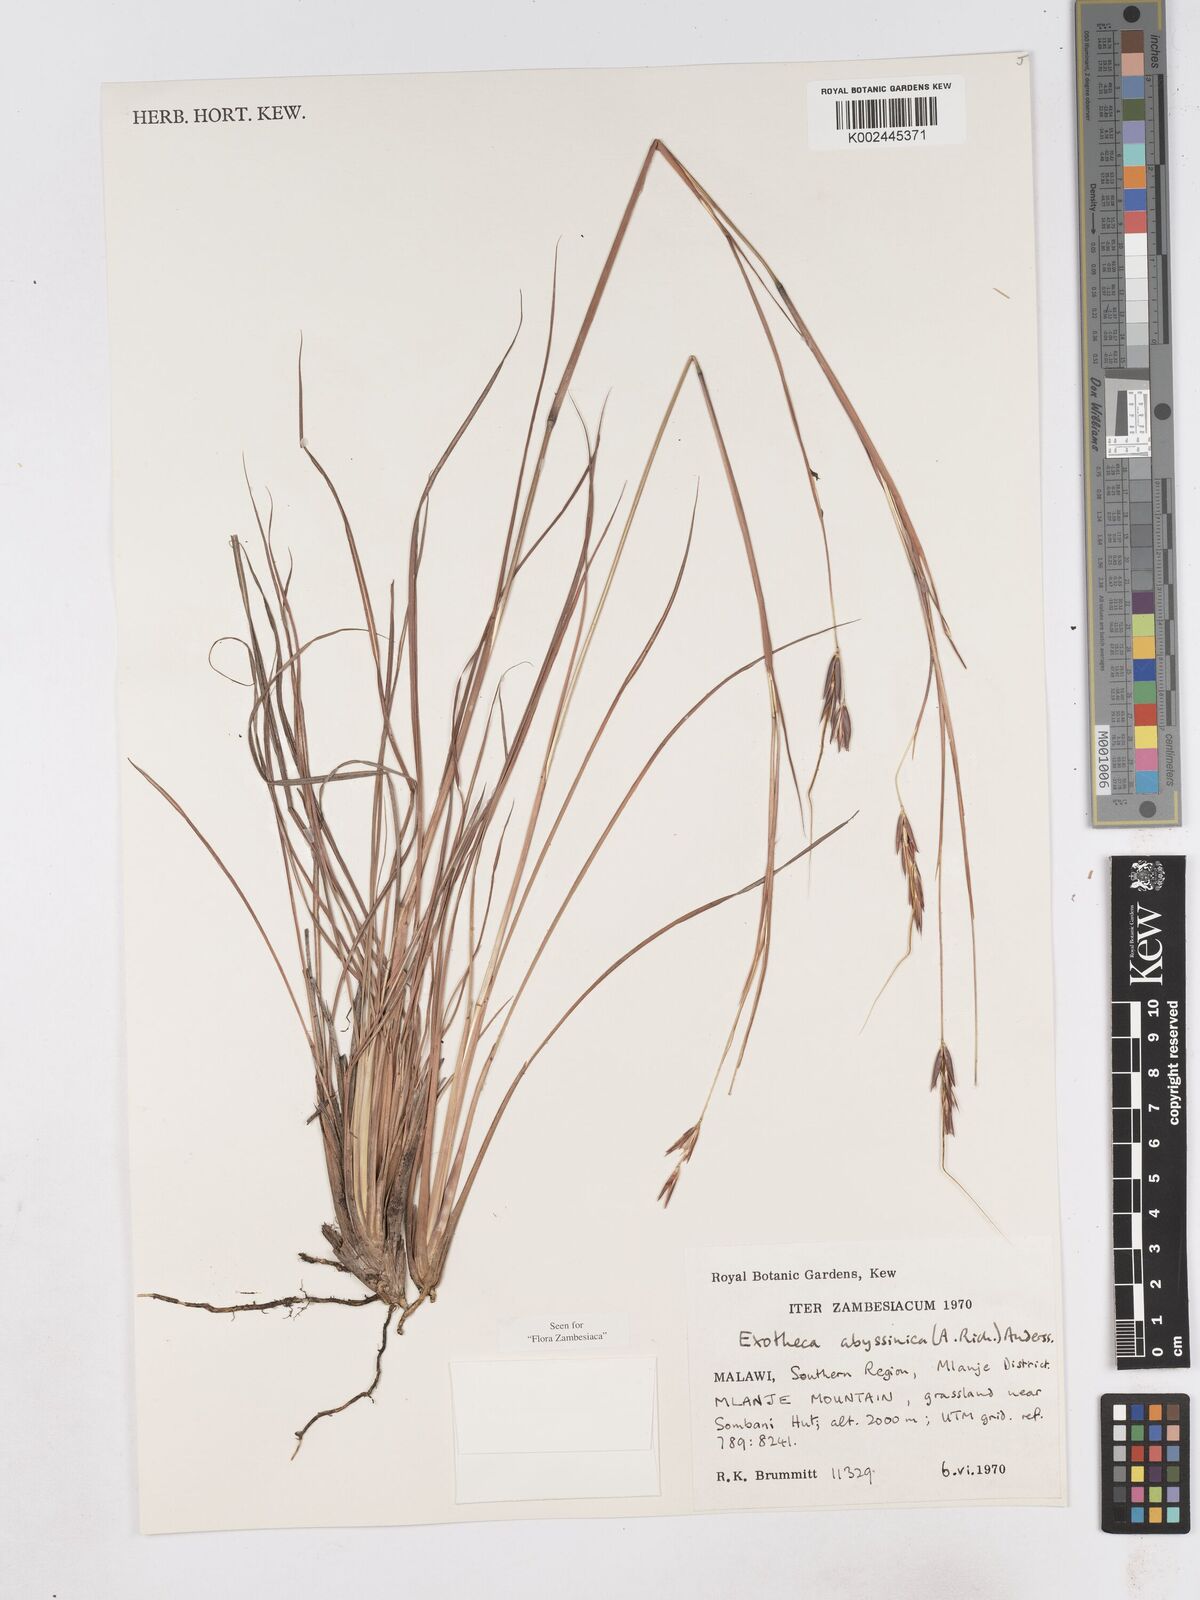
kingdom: Plantae
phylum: Tracheophyta
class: Liliopsida
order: Poales
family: Poaceae
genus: Exotheca
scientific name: Exotheca abyssinica
